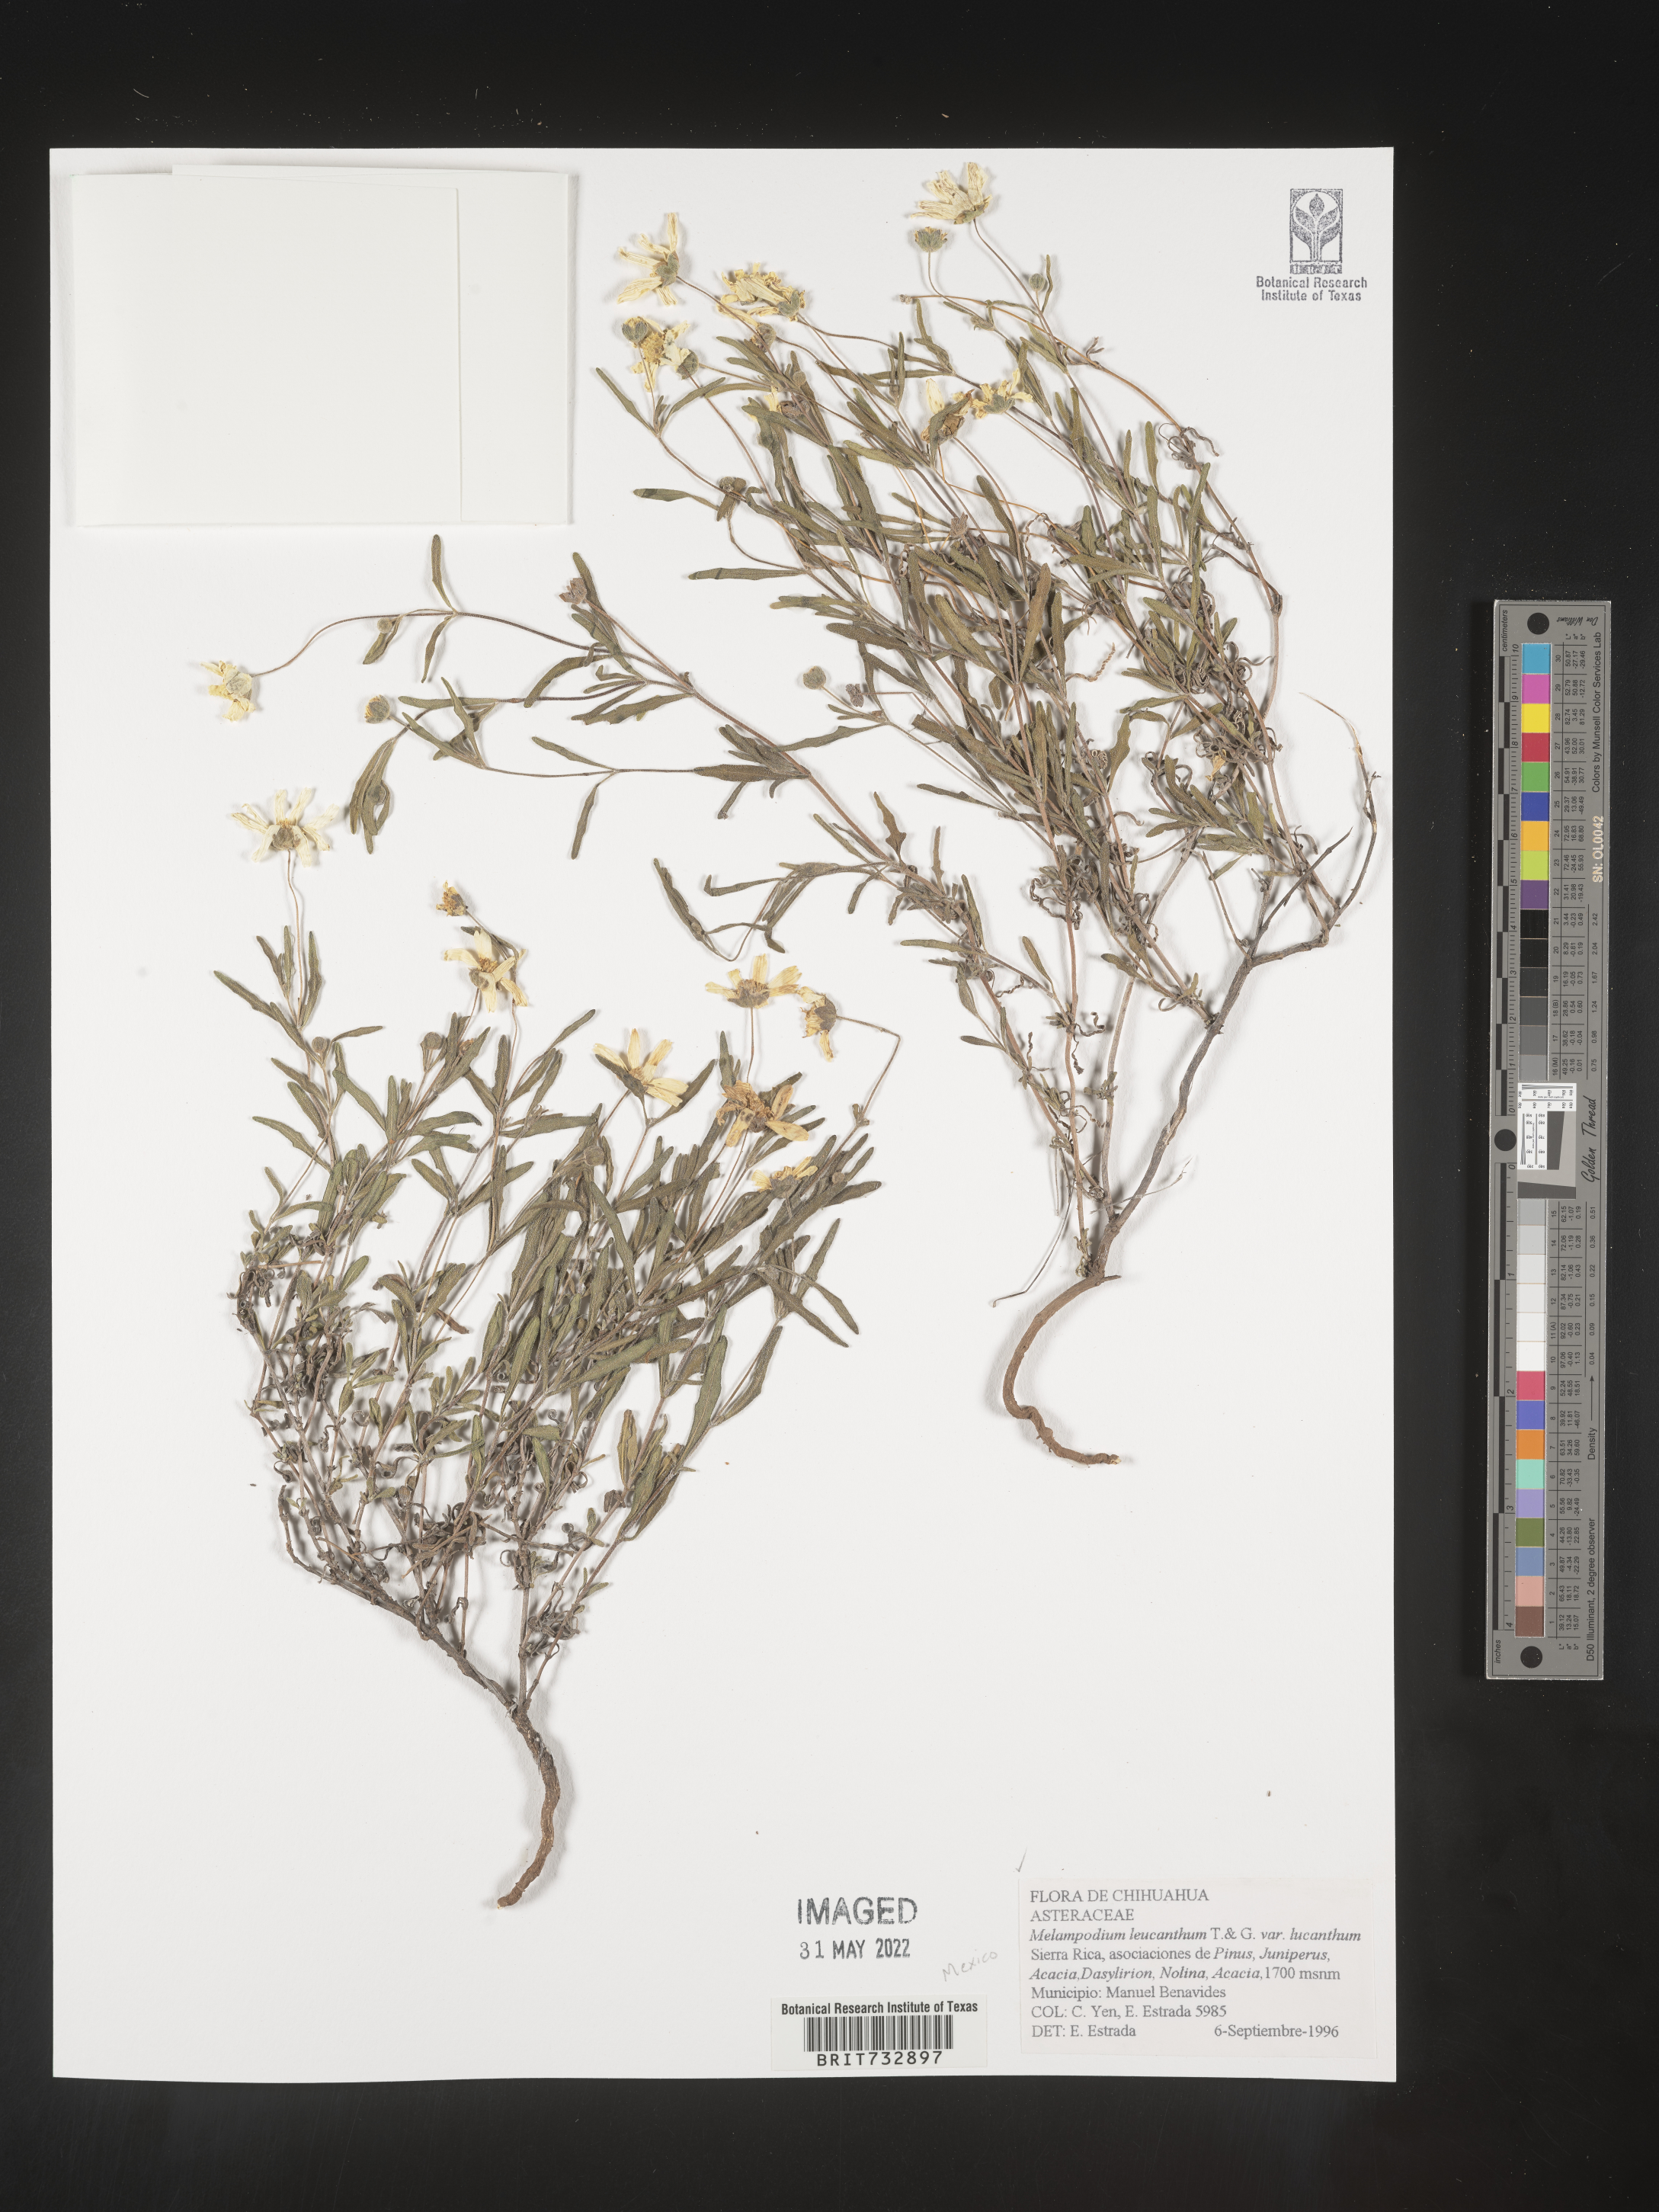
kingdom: Plantae
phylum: Tracheophyta
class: Magnoliopsida
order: Asterales
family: Asteraceae
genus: Melampodium
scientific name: Melampodium
